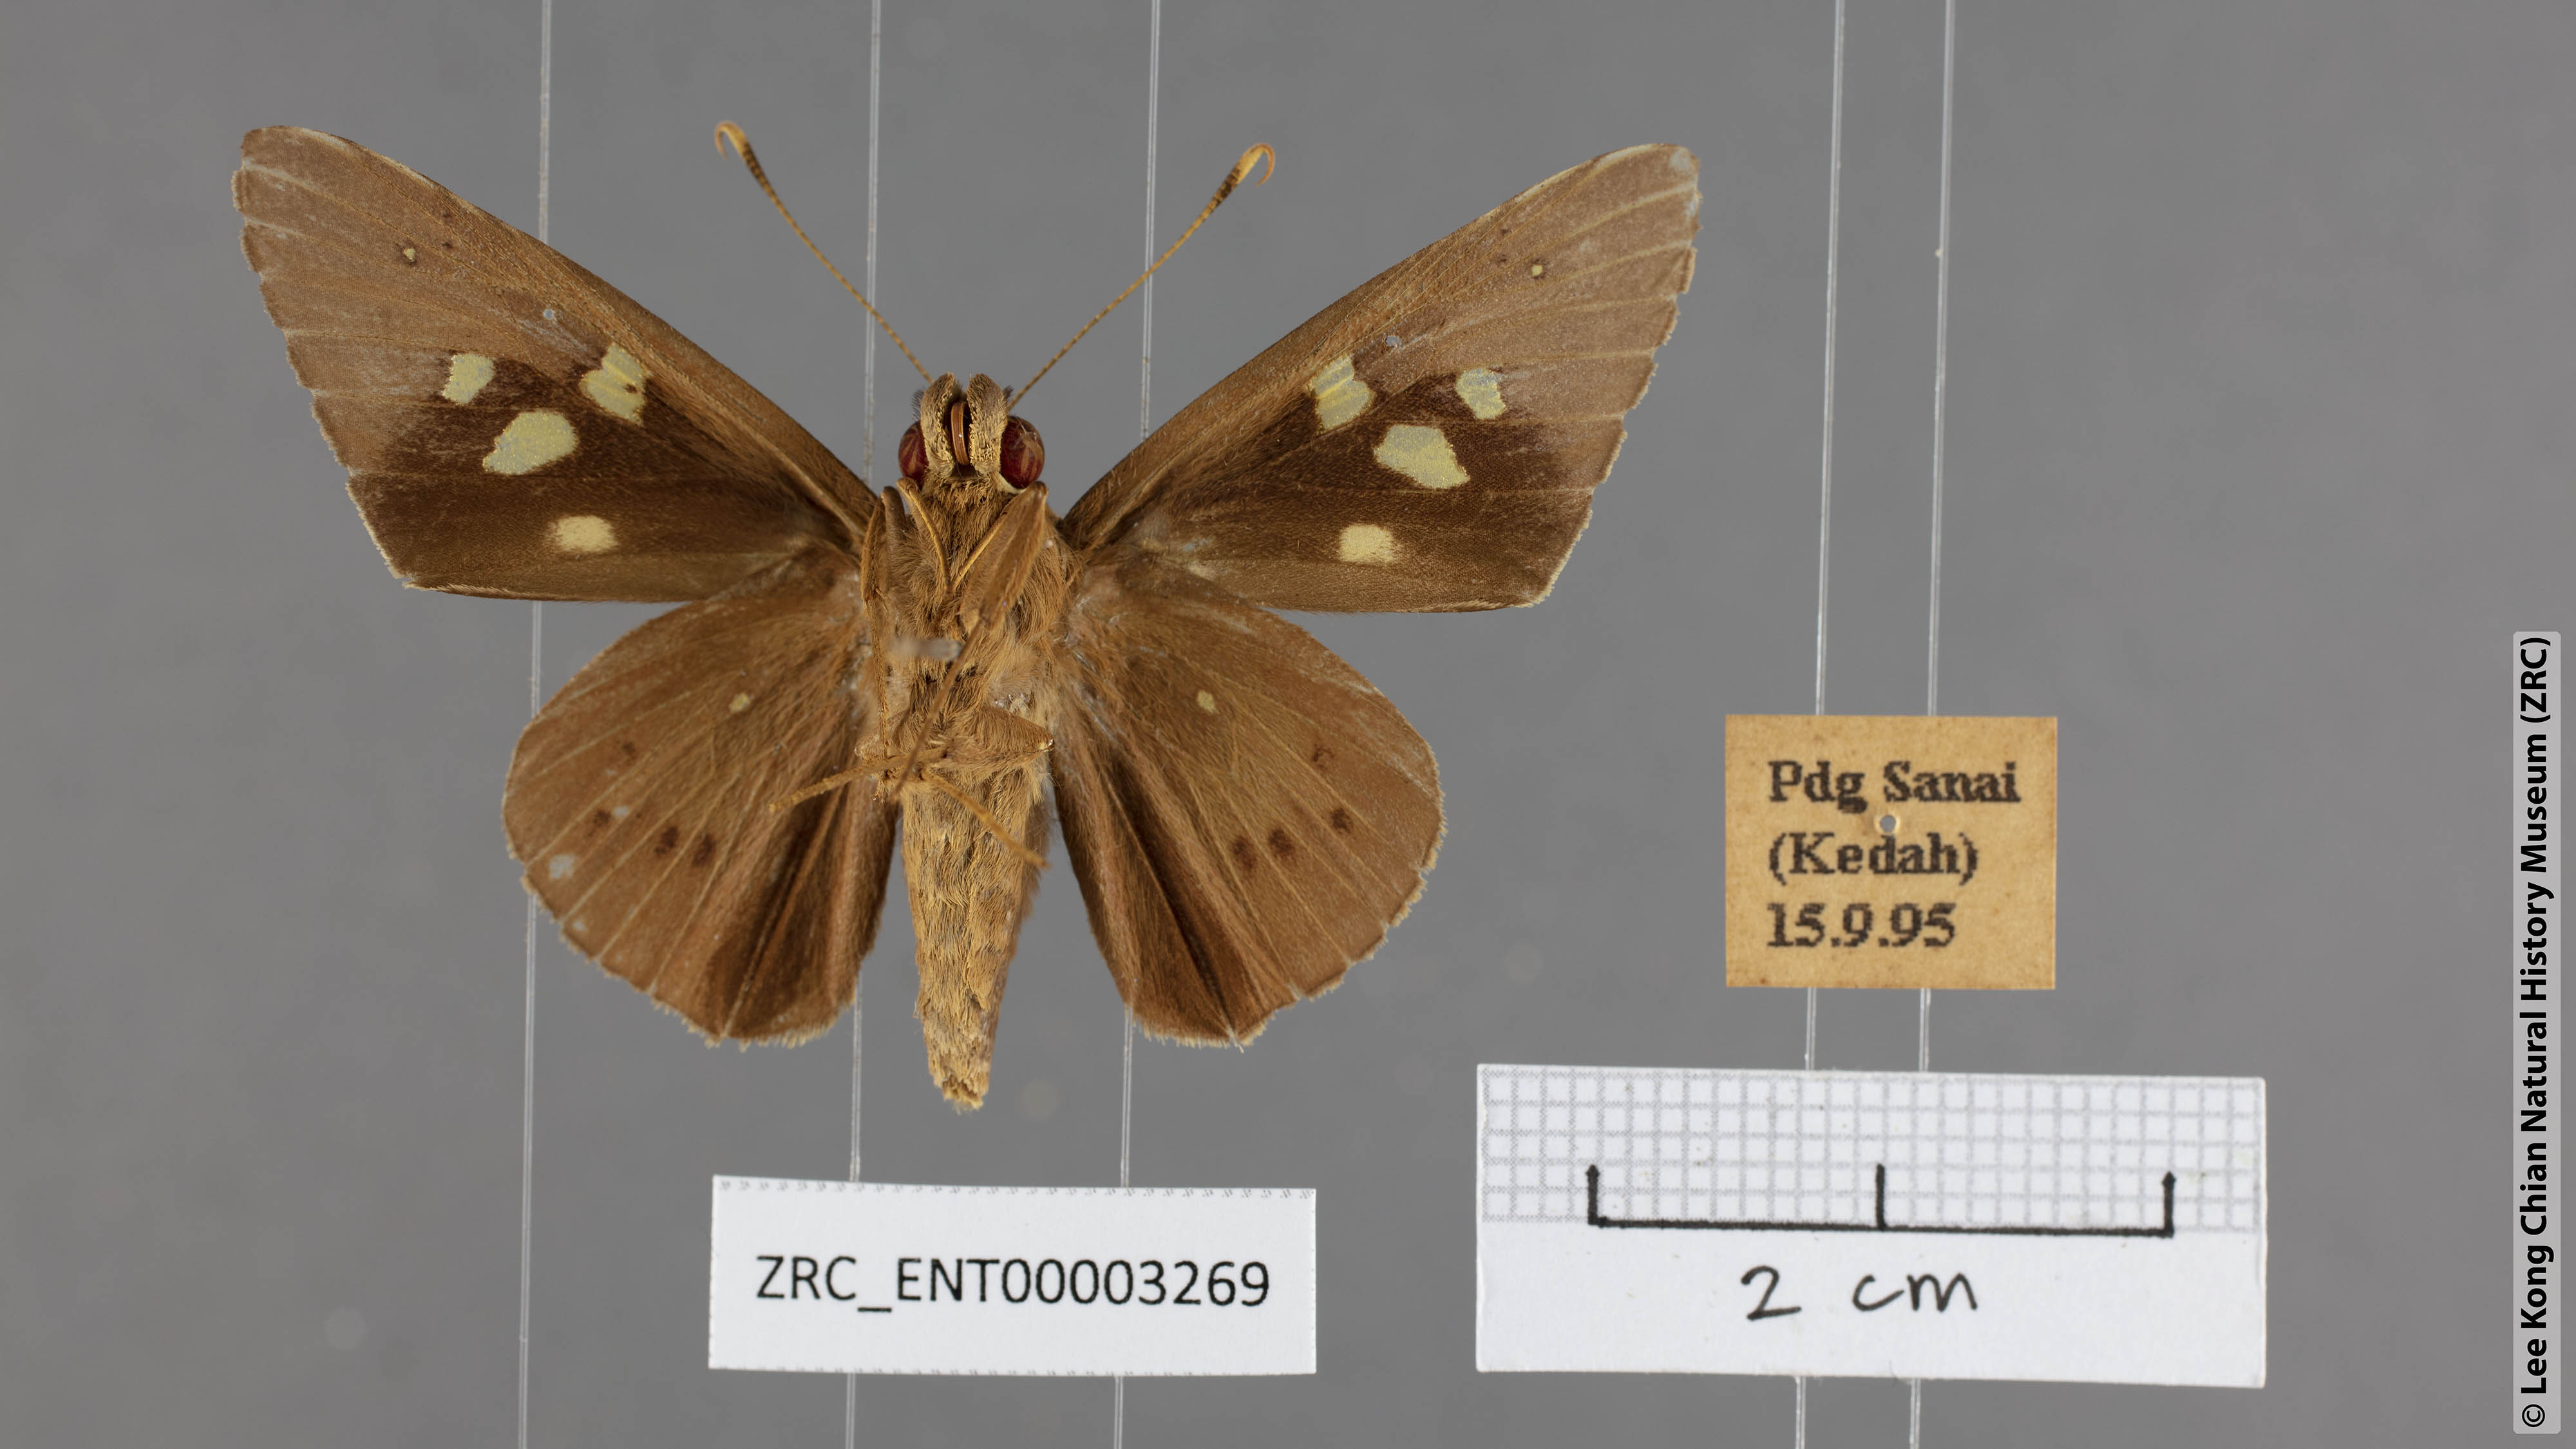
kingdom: Animalia
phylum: Arthropoda
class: Insecta
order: Lepidoptera
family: Hesperiidae
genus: Hidari
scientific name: Hidari irava
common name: Coconut skipper
